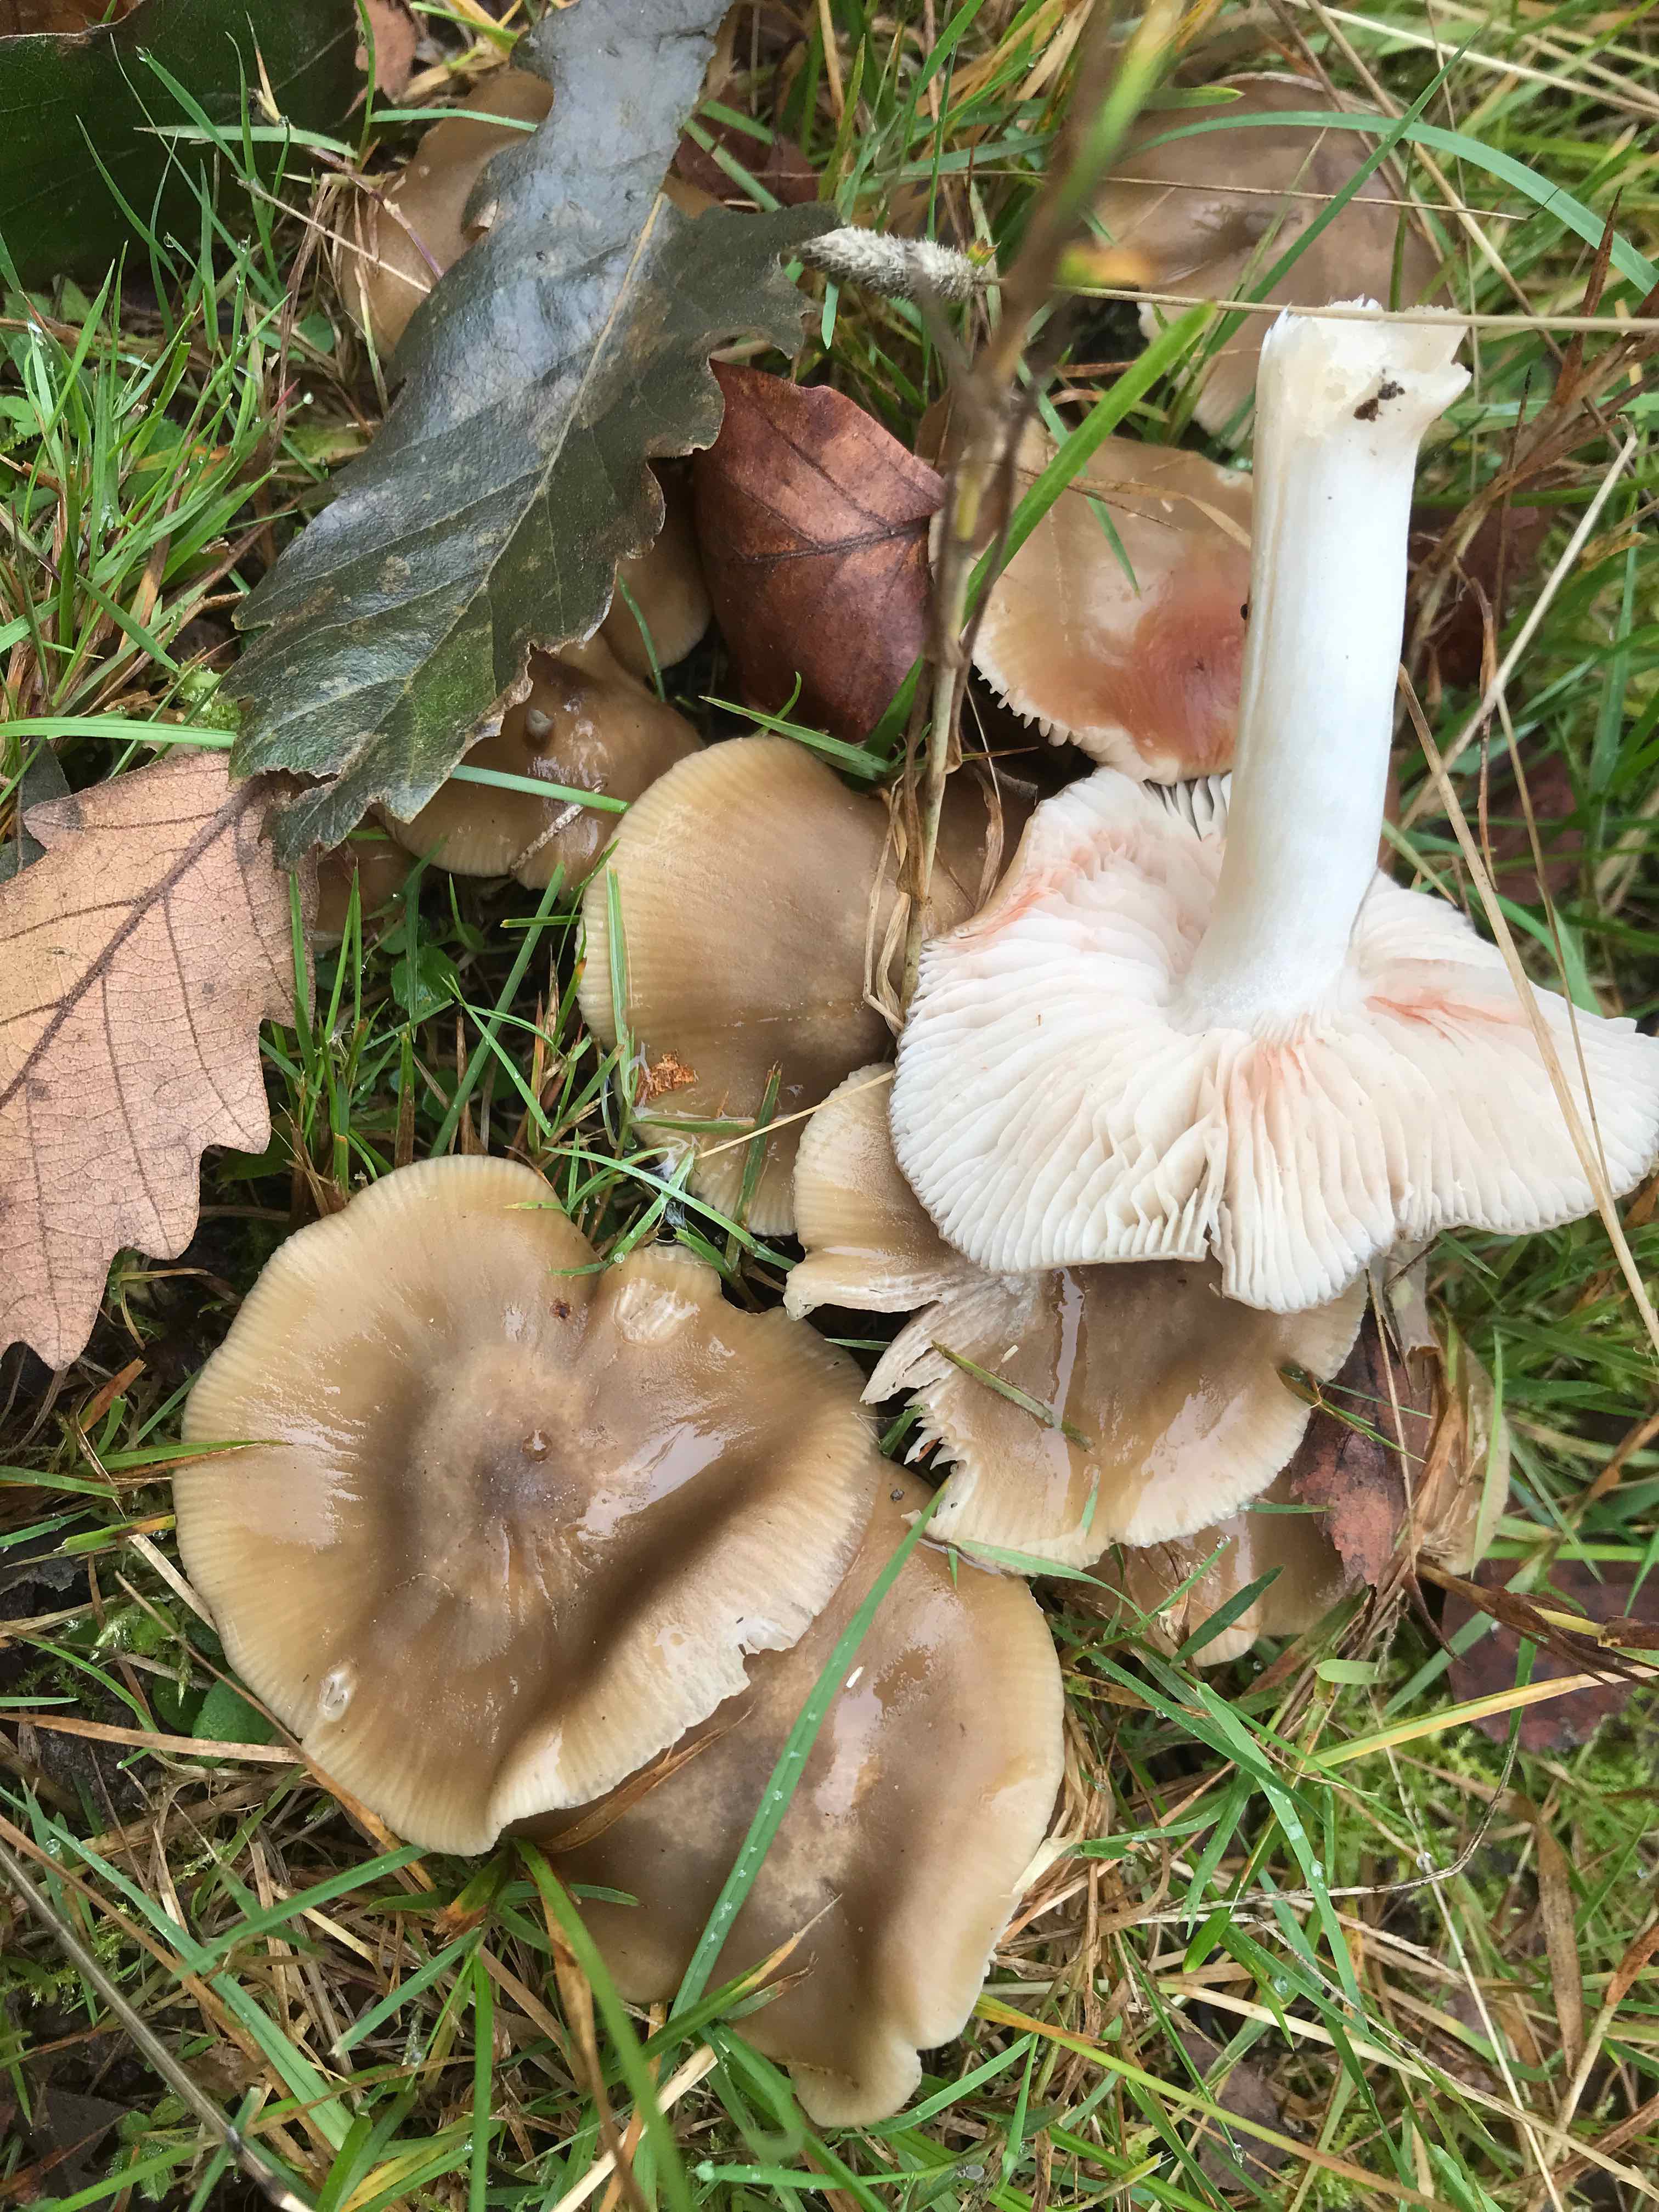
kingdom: Fungi
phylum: Basidiomycota
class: Agaricomycetes
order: Agaricales
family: Entolomataceae
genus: Entoloma
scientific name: Entoloma lividoalbum
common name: lysstokket rødblad
